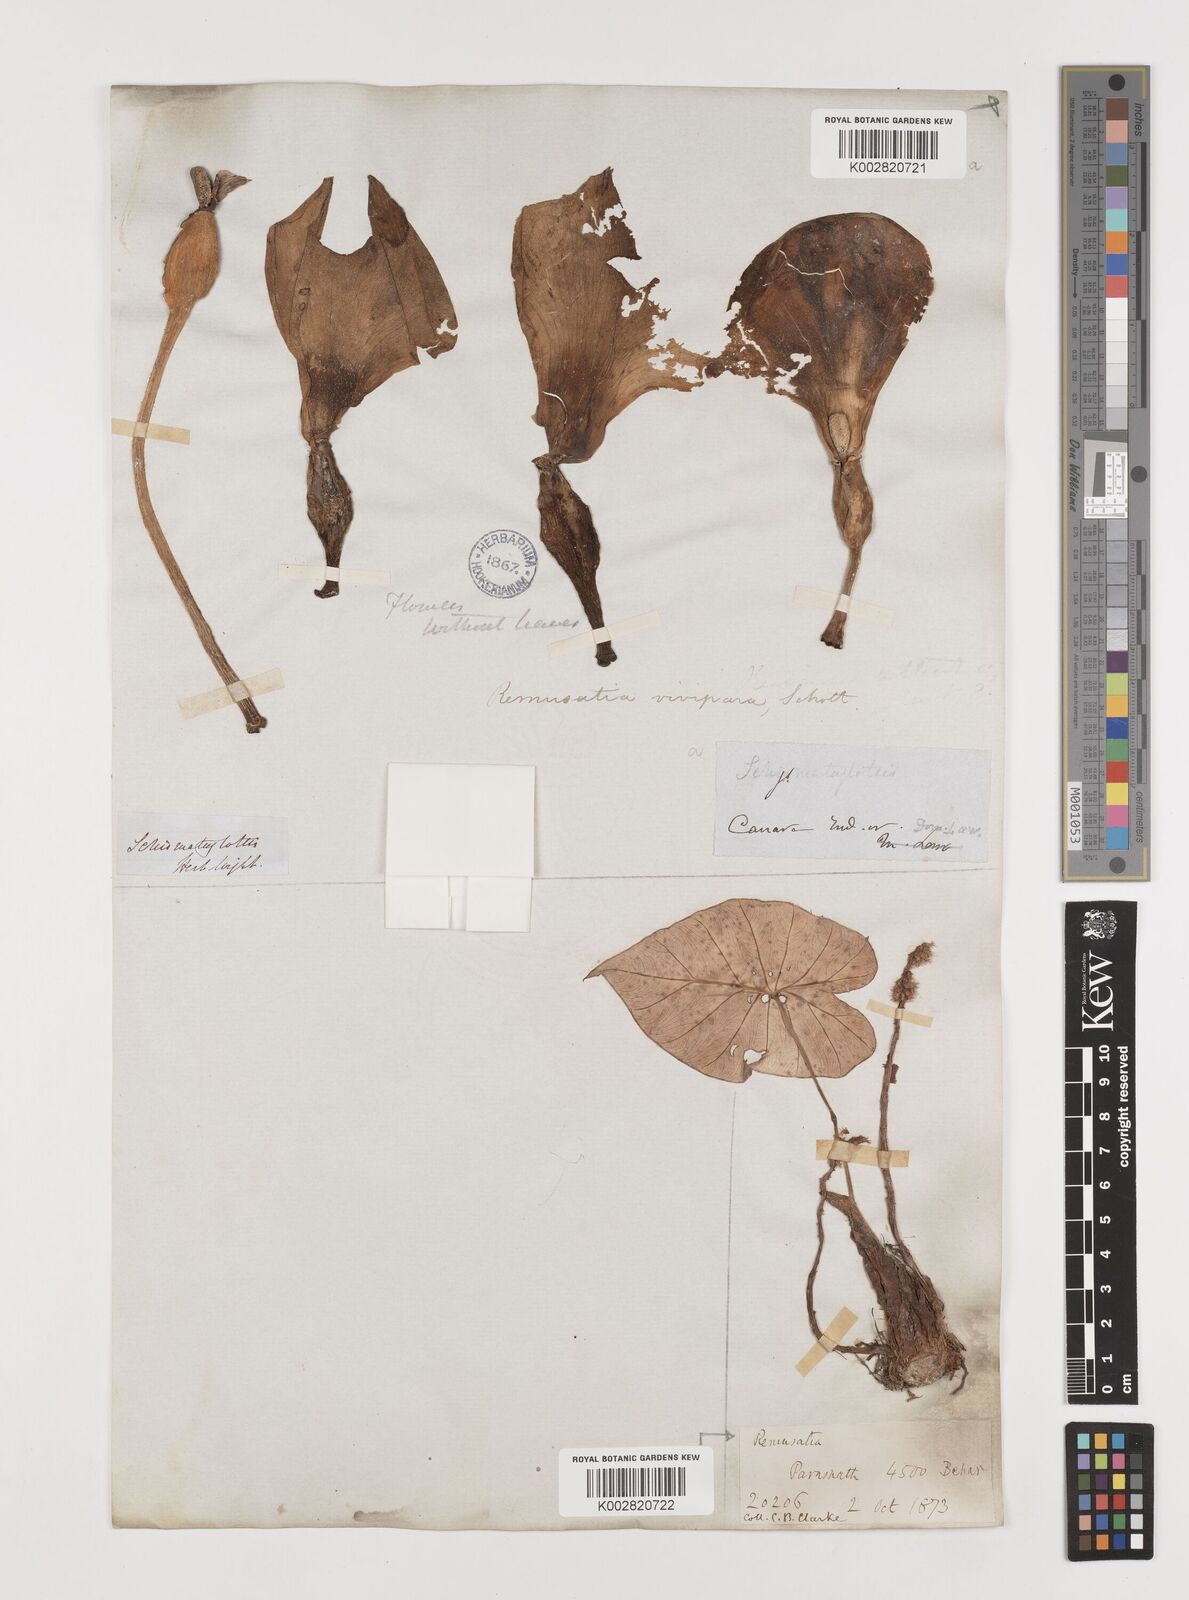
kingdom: Plantae
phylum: Tracheophyta
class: Liliopsida
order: Alismatales
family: Araceae
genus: Remusatia
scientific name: Remusatia vivipara
